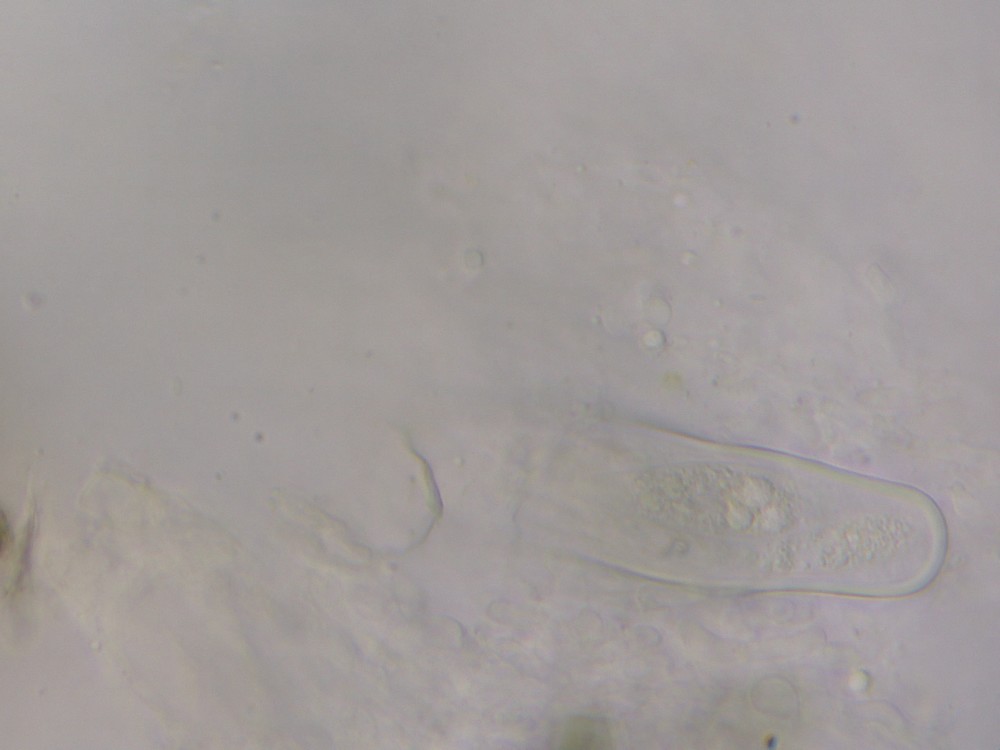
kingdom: Fungi
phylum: Ascomycota
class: Dothideomycetes
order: Tubeufiales
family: Tubeufiaceae
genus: Rebentischia
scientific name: Rebentischia massalongoi
